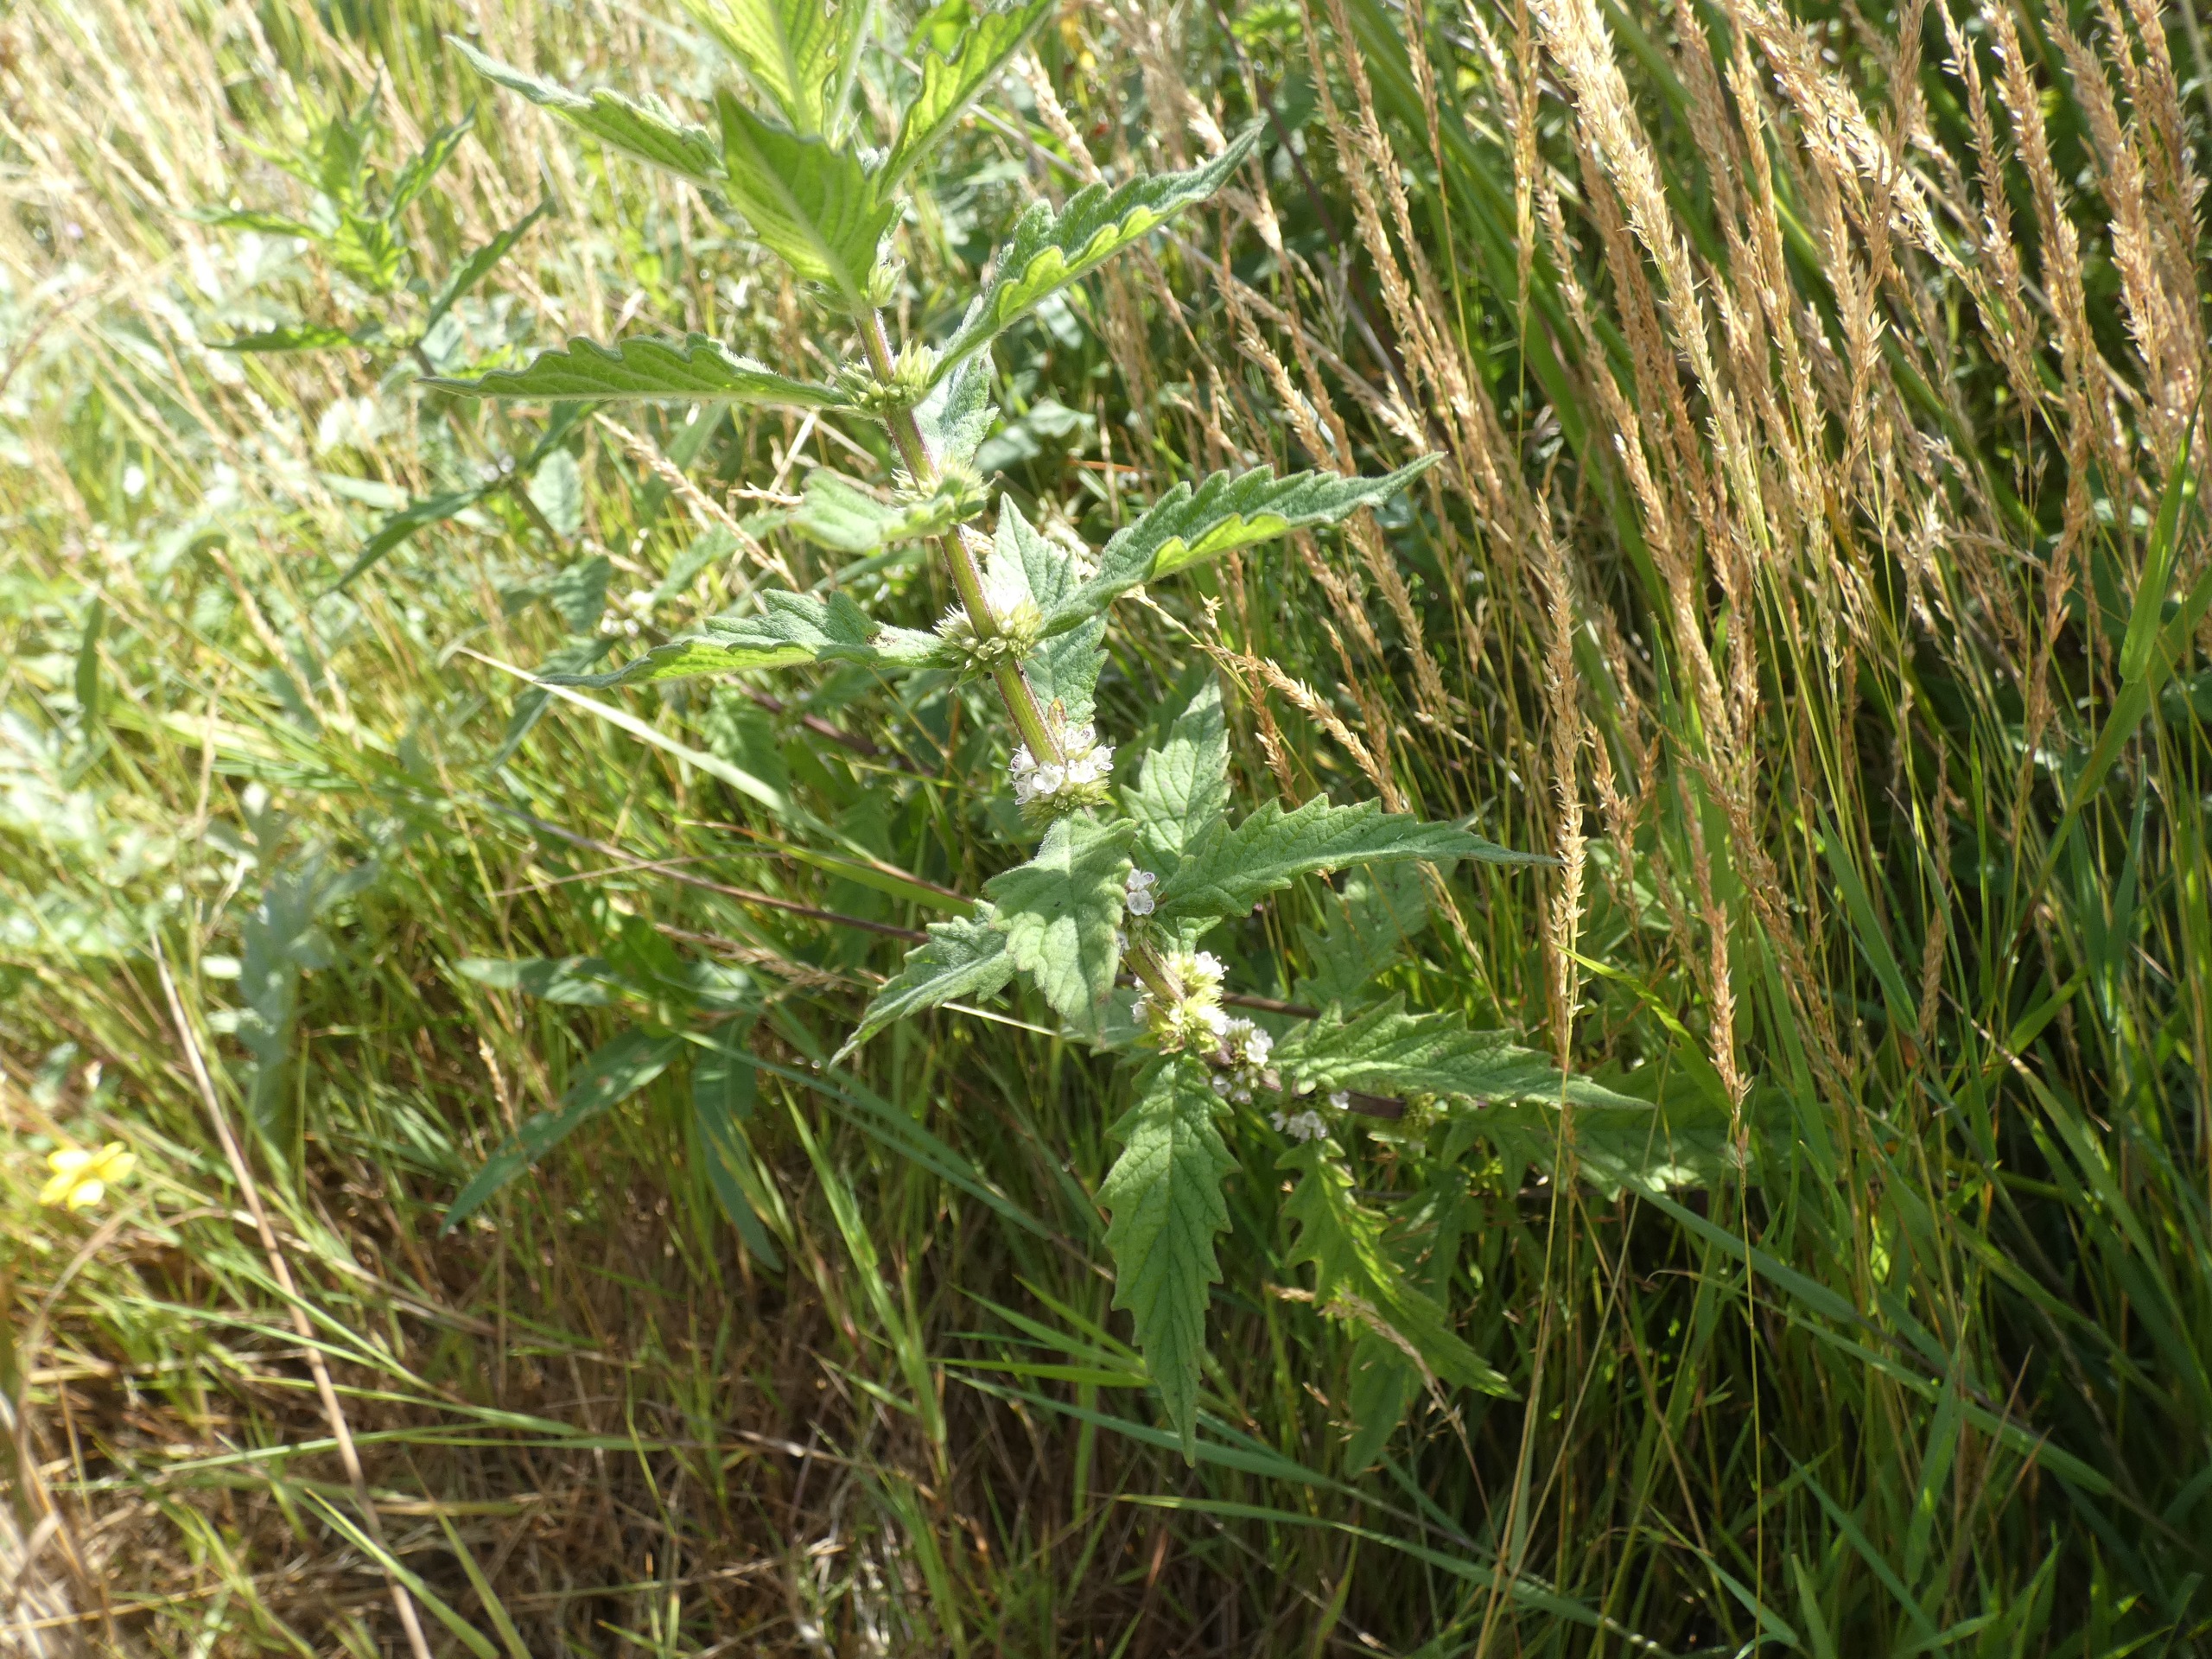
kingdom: Plantae
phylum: Tracheophyta
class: Magnoliopsida
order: Lamiales
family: Lamiaceae
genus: Lycopus
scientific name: Lycopus europaeus
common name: Sværtevæld
